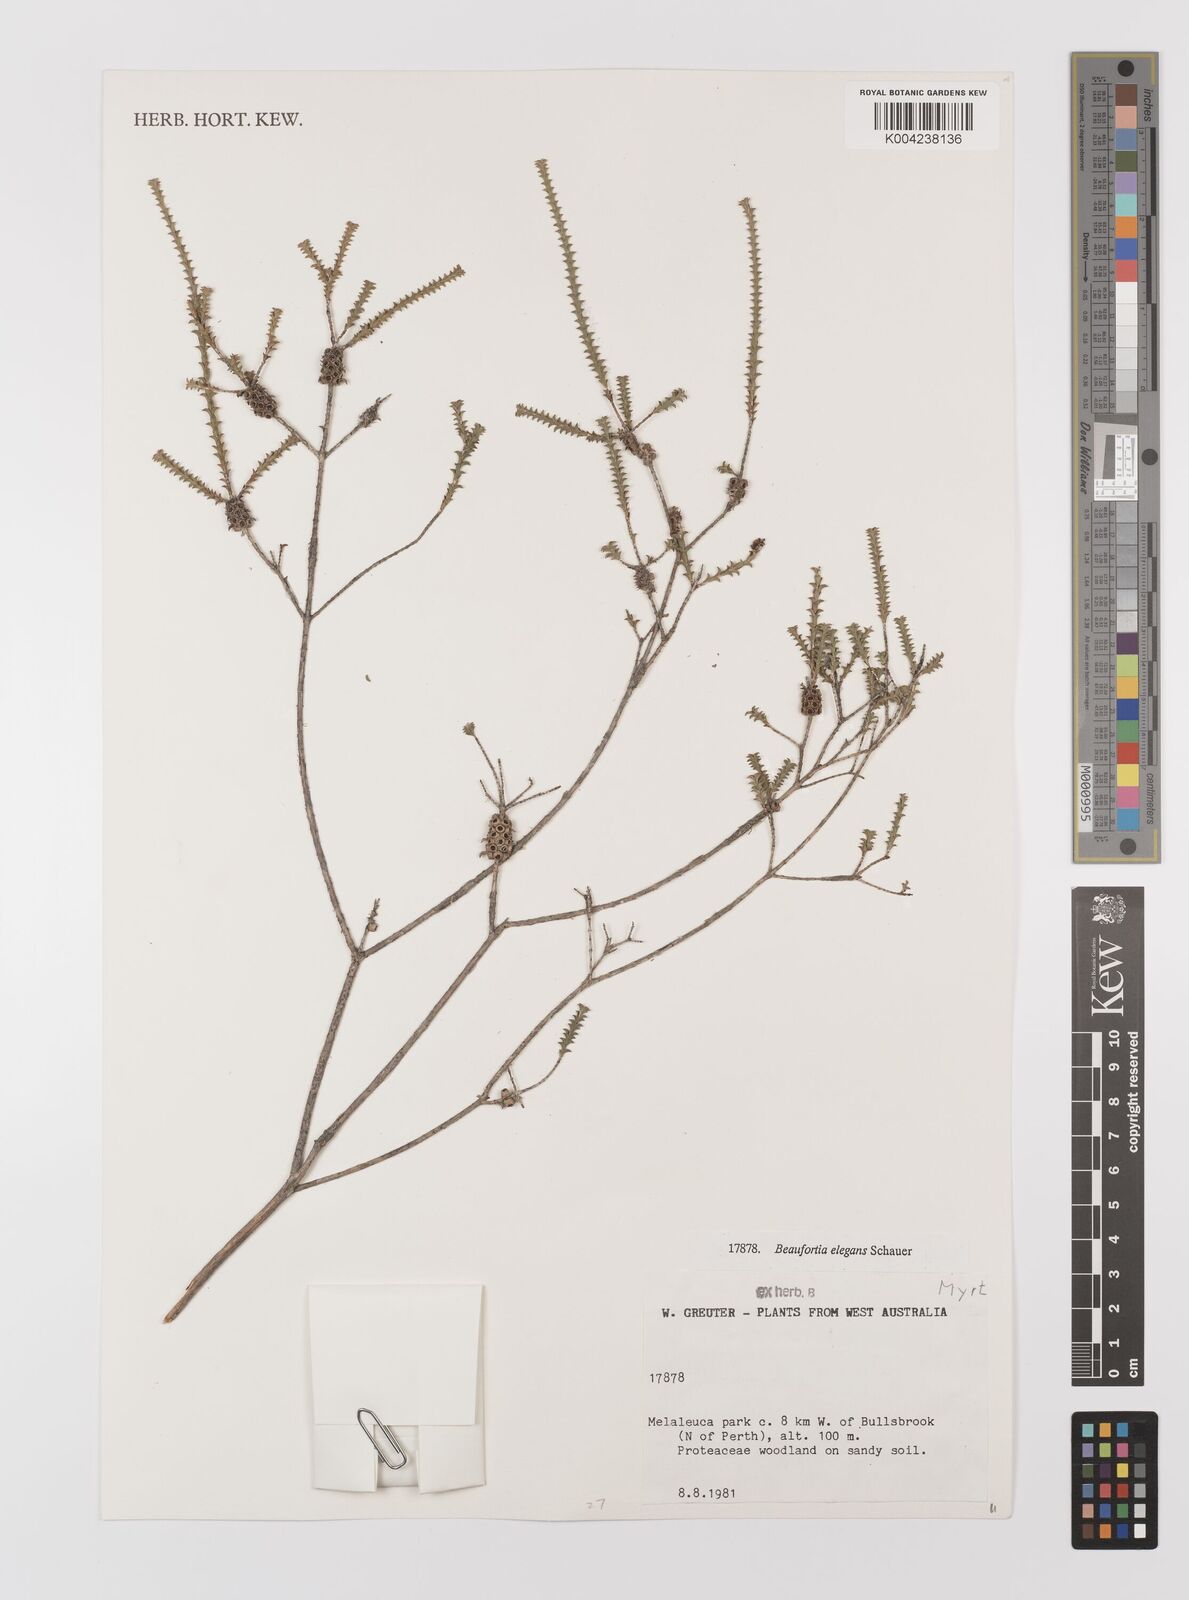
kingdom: Plantae
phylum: Tracheophyta
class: Magnoliopsida
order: Myrtales
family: Myrtaceae
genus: Melaleuca
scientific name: Melaleuca scitula
